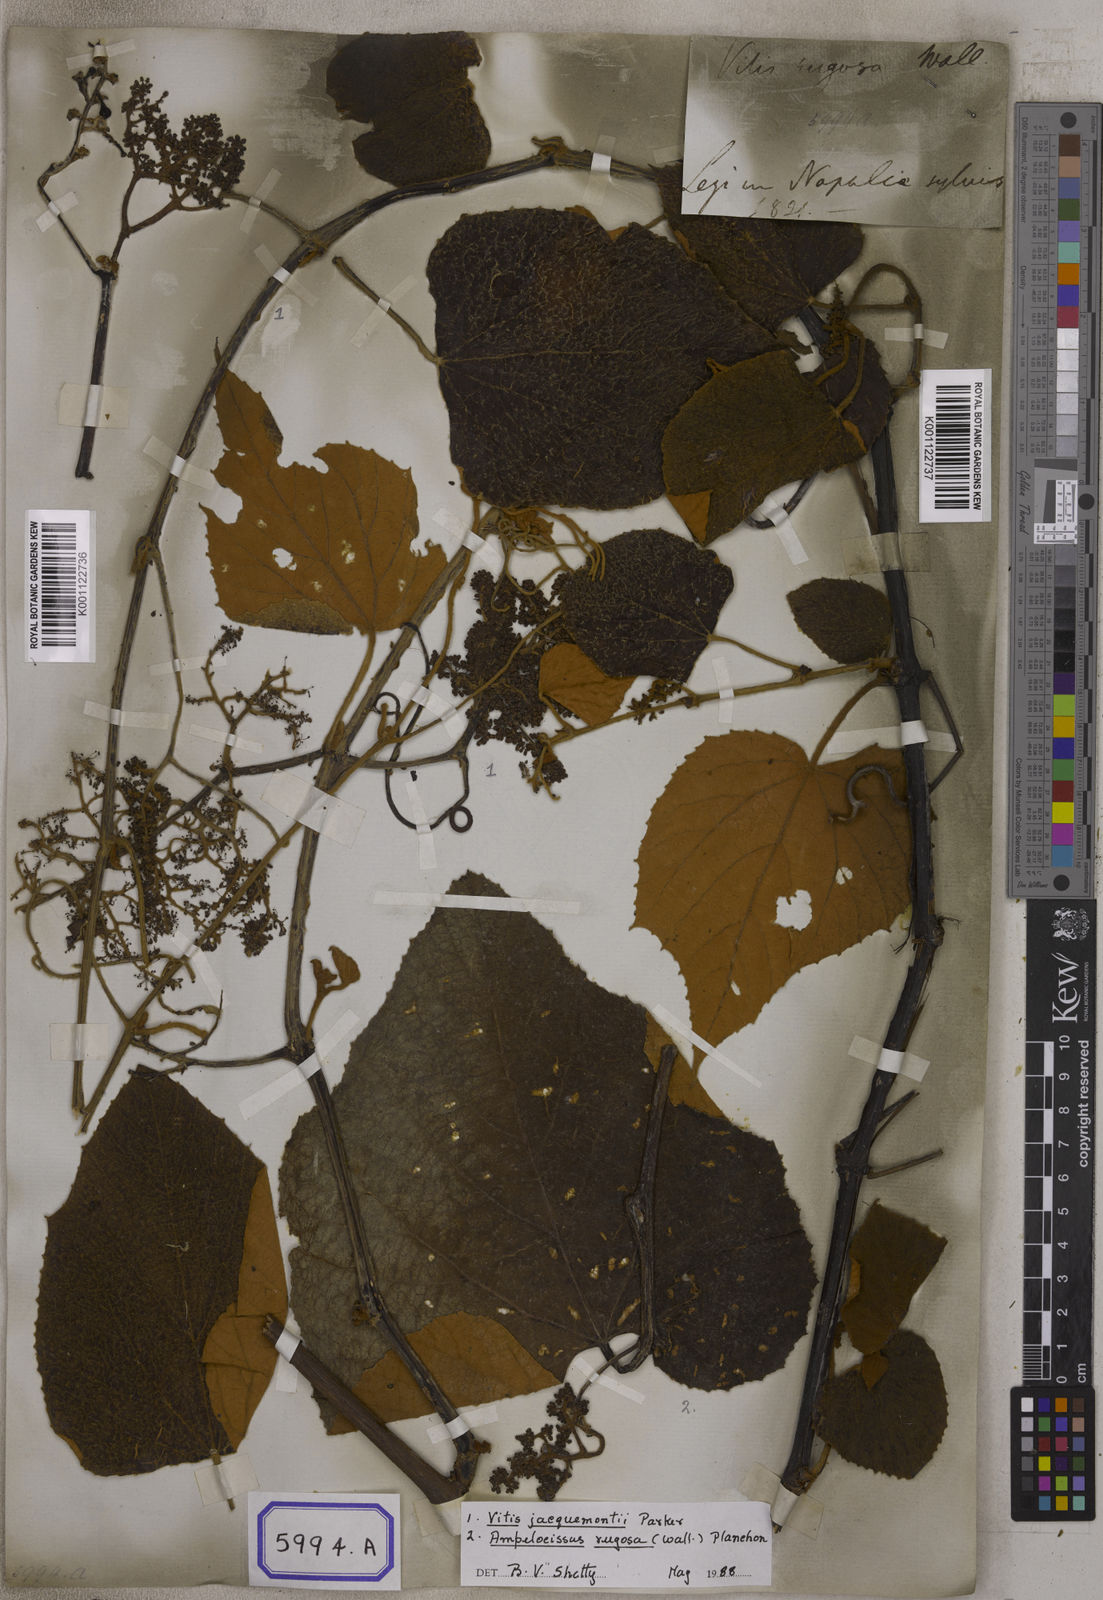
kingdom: Plantae
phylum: Tracheophyta
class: Magnoliopsida
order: Vitales
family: Vitaceae
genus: Ampelocissus
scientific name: Ampelocissus rugosa
